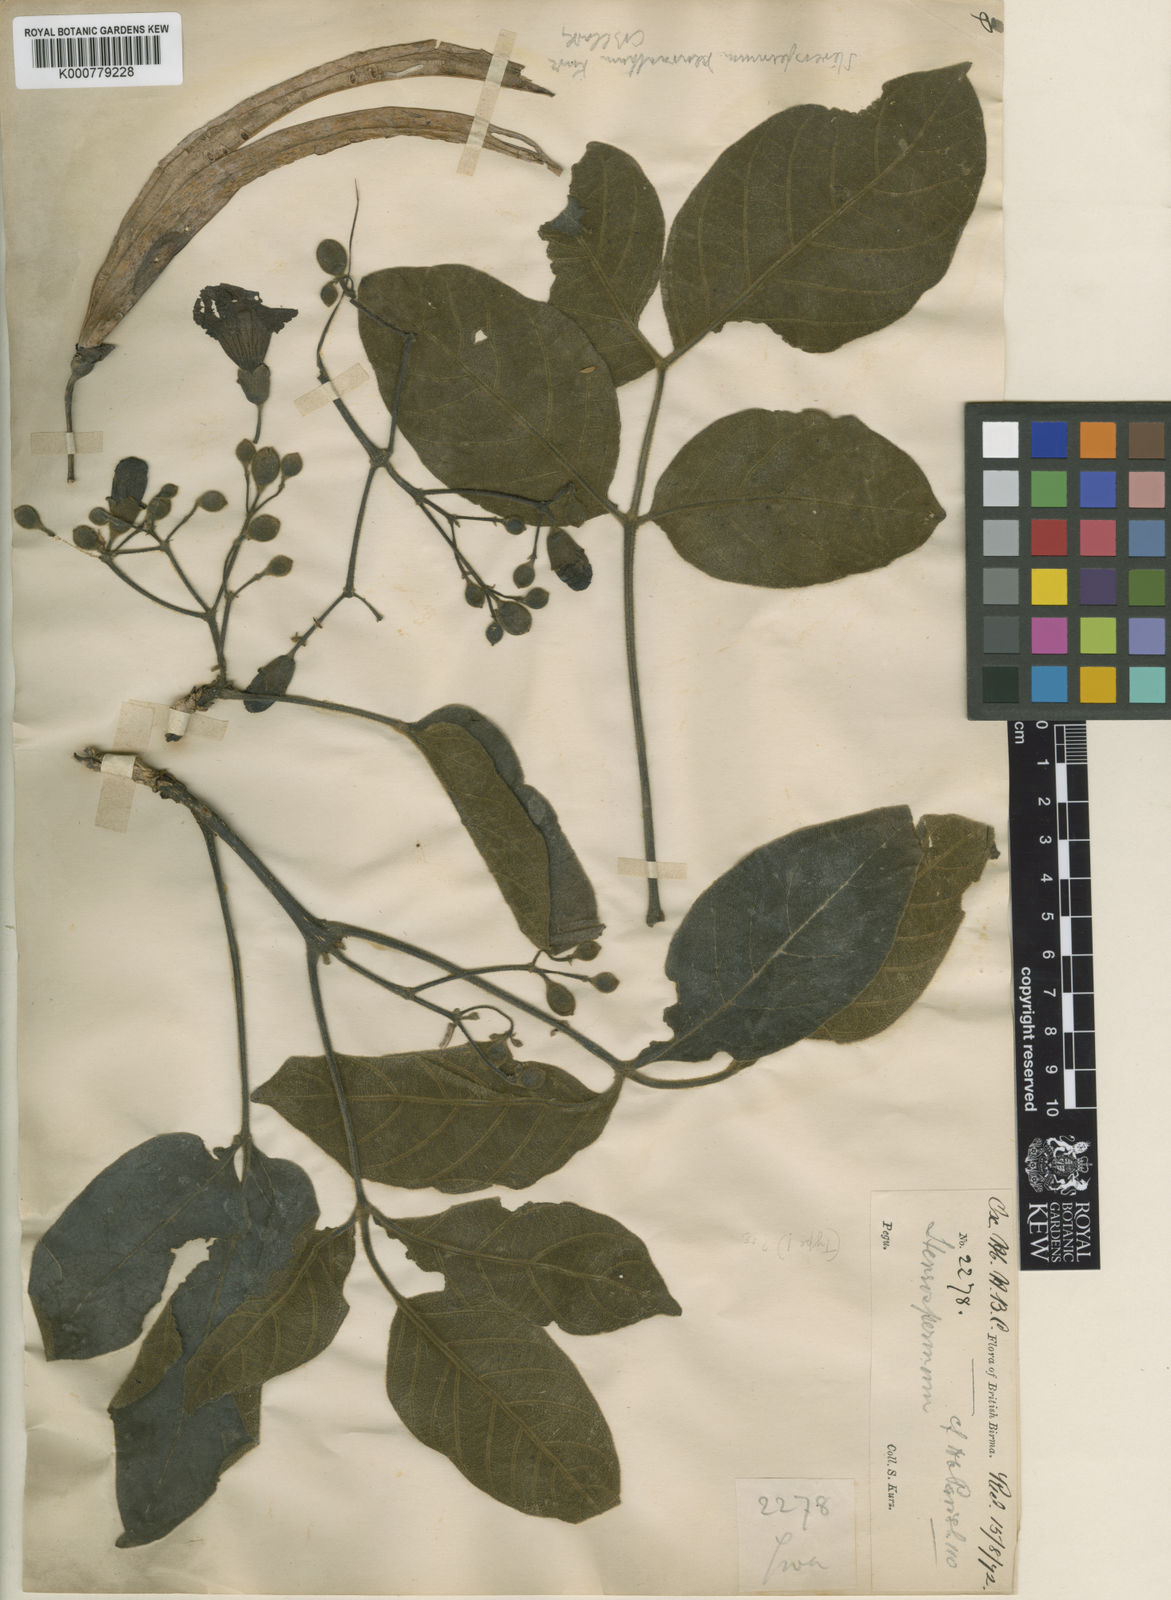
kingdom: Plantae
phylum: Tracheophyta
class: Magnoliopsida
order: Lamiales
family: Bignoniaceae
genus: Stereospermum
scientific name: Stereospermum neuranthum
